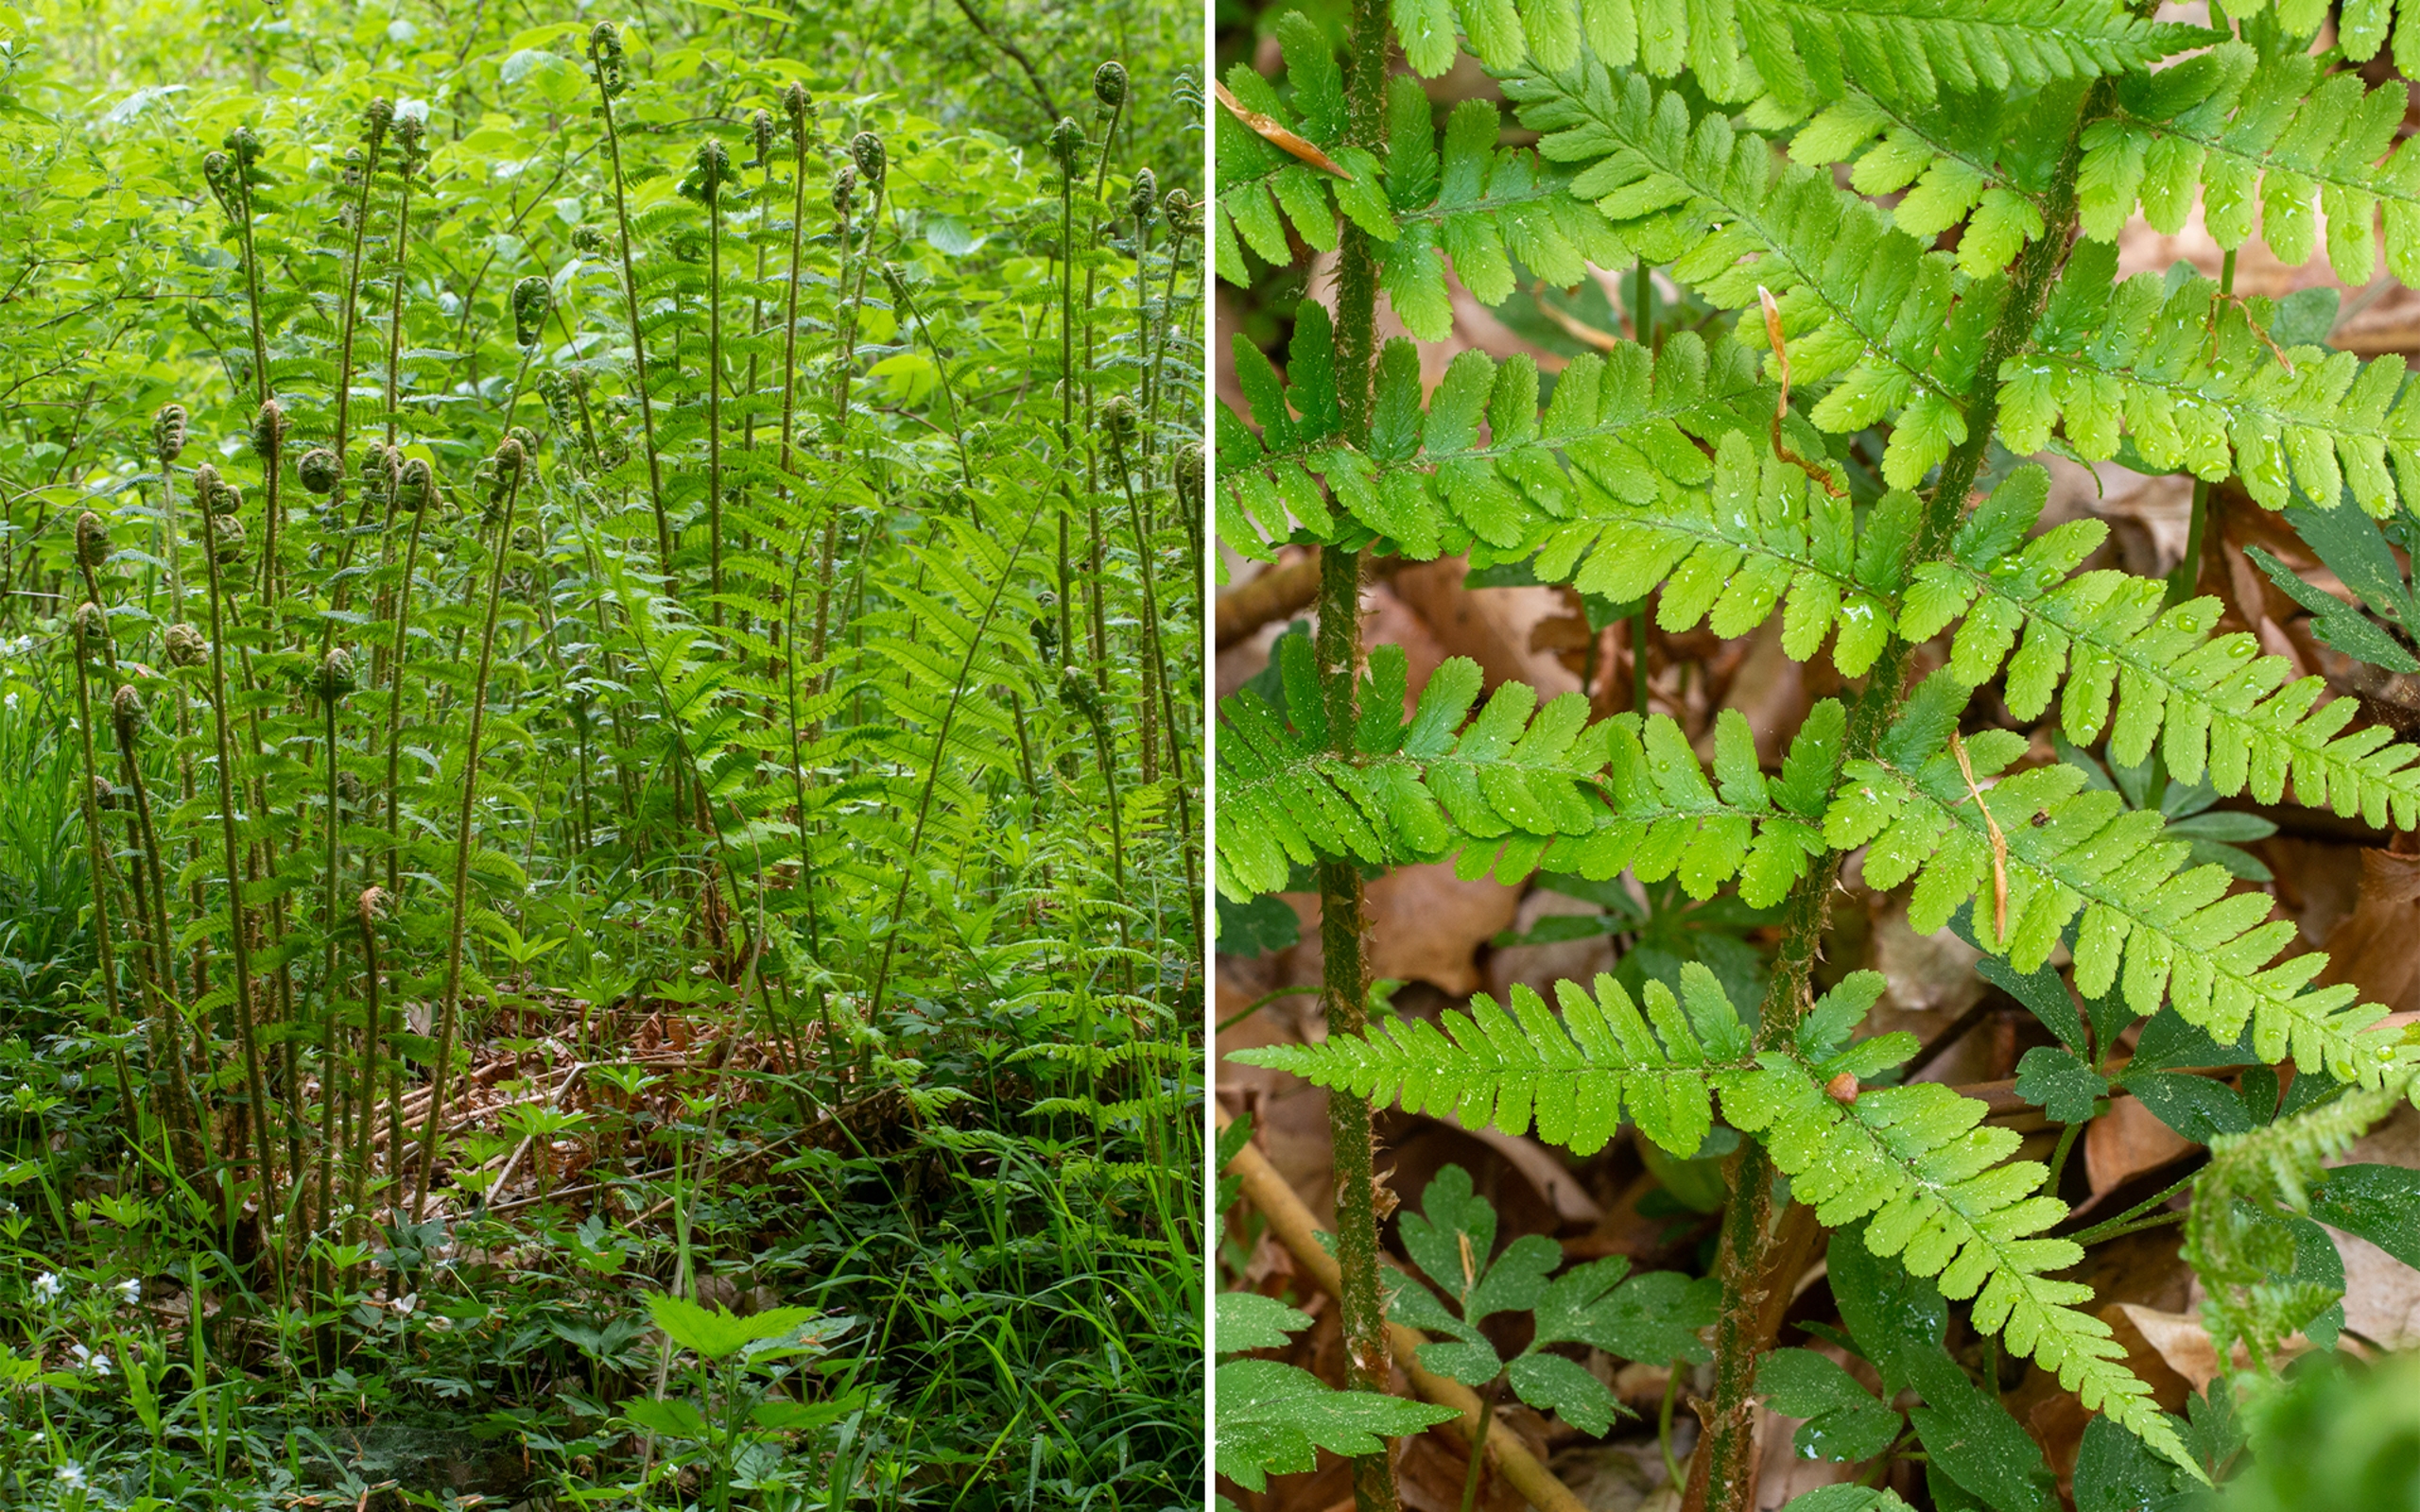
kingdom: Plantae
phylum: Tracheophyta
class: Polypodiopsida
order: Polypodiales
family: Dryopteridaceae
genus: Dryopteris
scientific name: Dryopteris filix-mas
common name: Almindelig mangeløv
